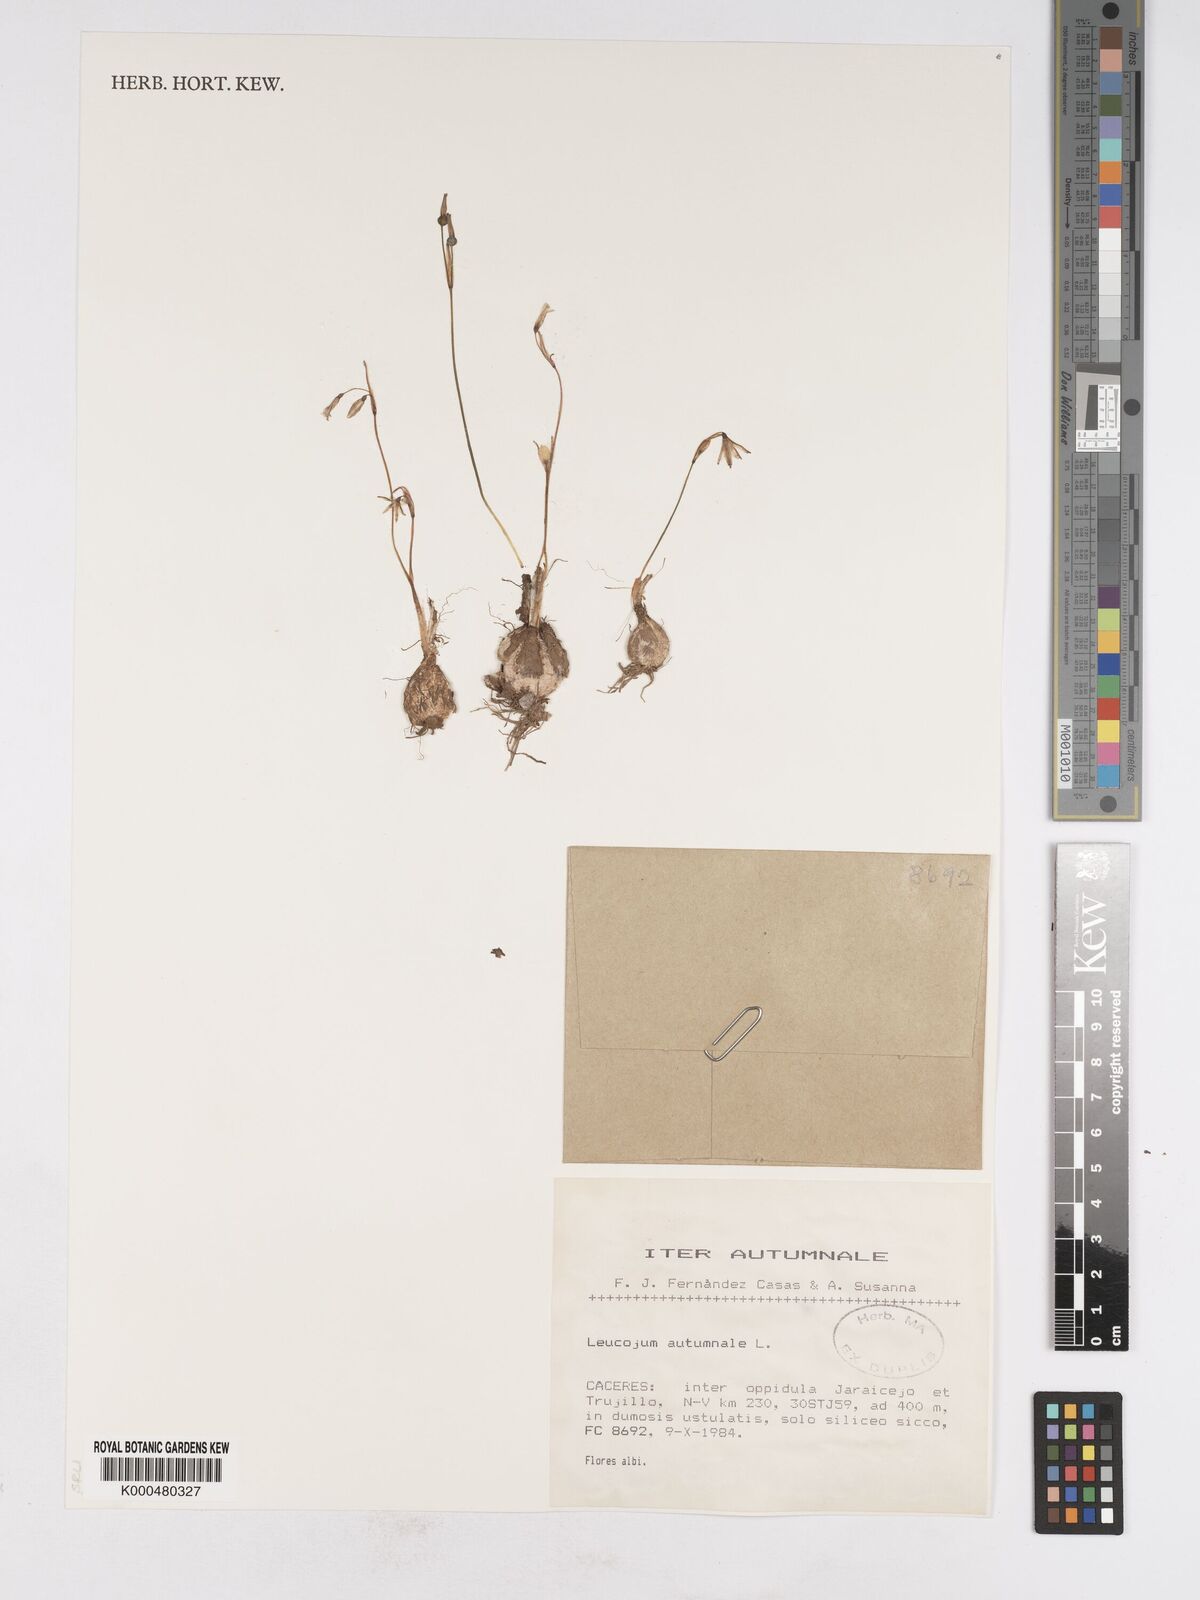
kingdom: Plantae
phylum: Tracheophyta
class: Liliopsida
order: Asparagales
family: Amaryllidaceae
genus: Acis
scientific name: Acis autumnalis
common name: Autumn snowflake
